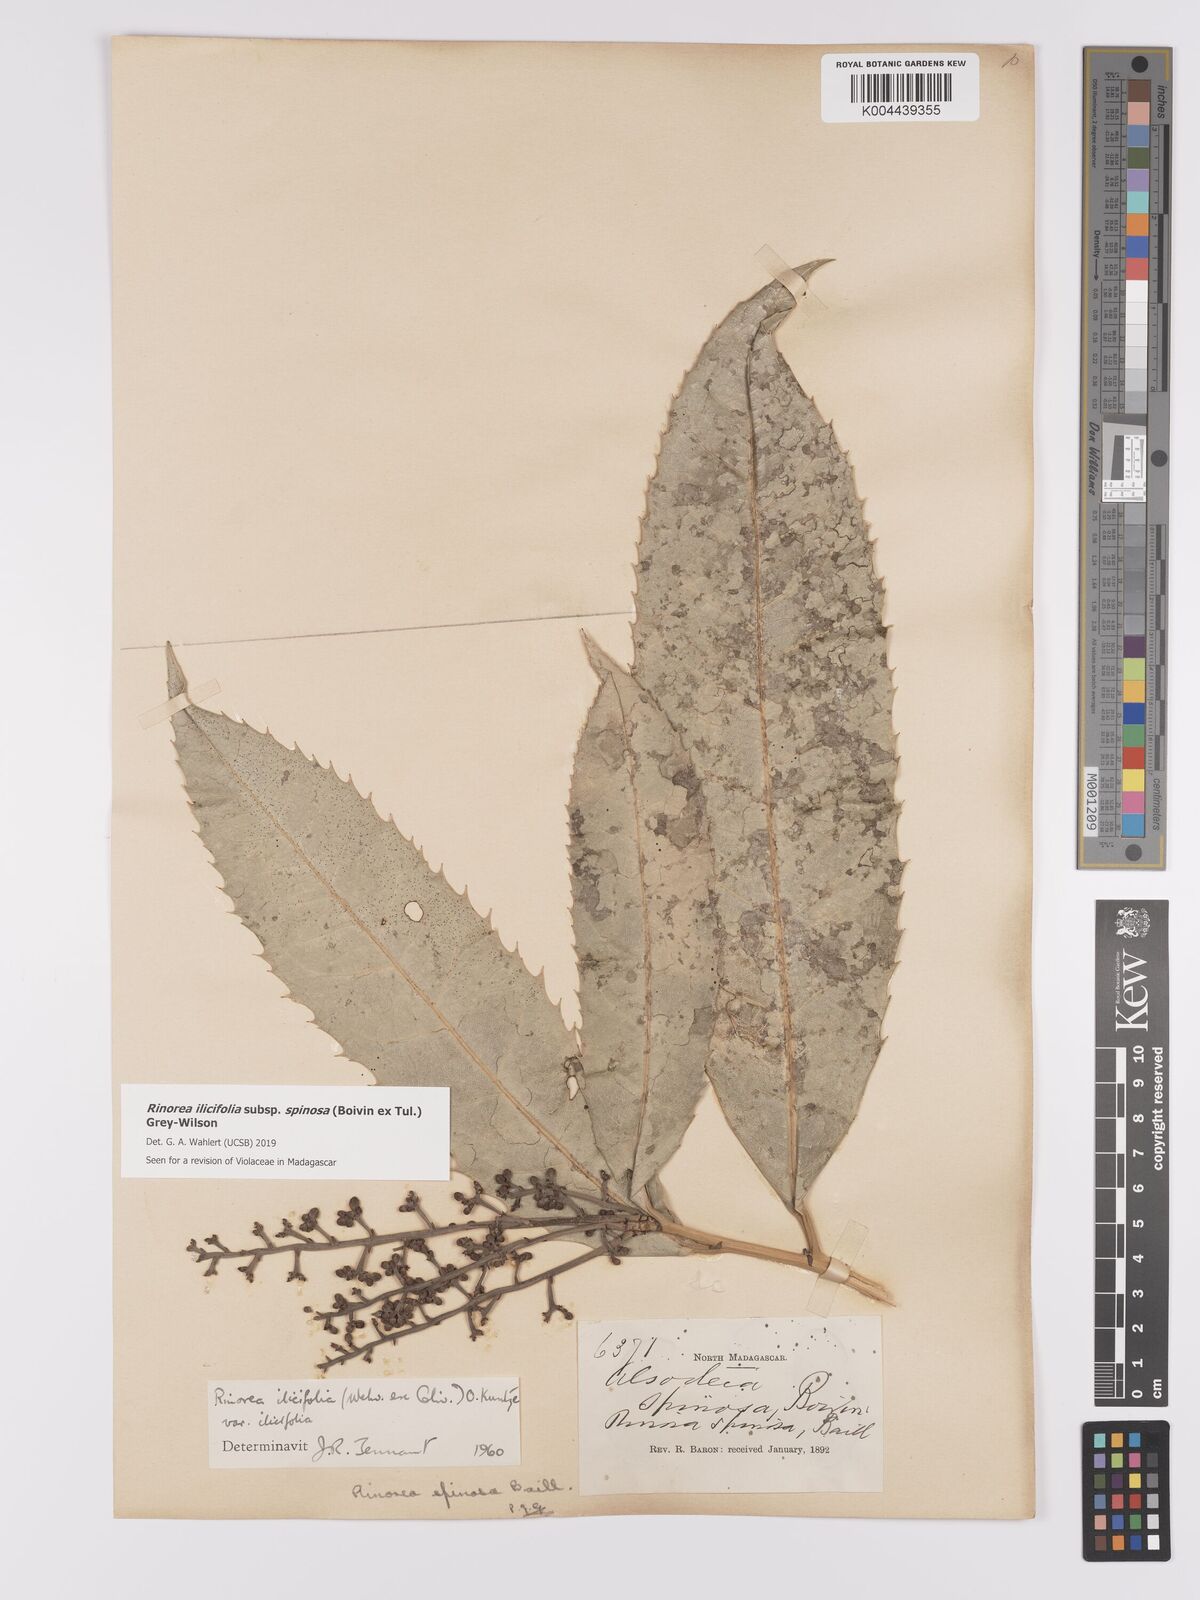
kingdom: Plantae
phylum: Tracheophyta
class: Magnoliopsida
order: Malpighiales
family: Violaceae
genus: Rinorea
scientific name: Rinorea spinosa
